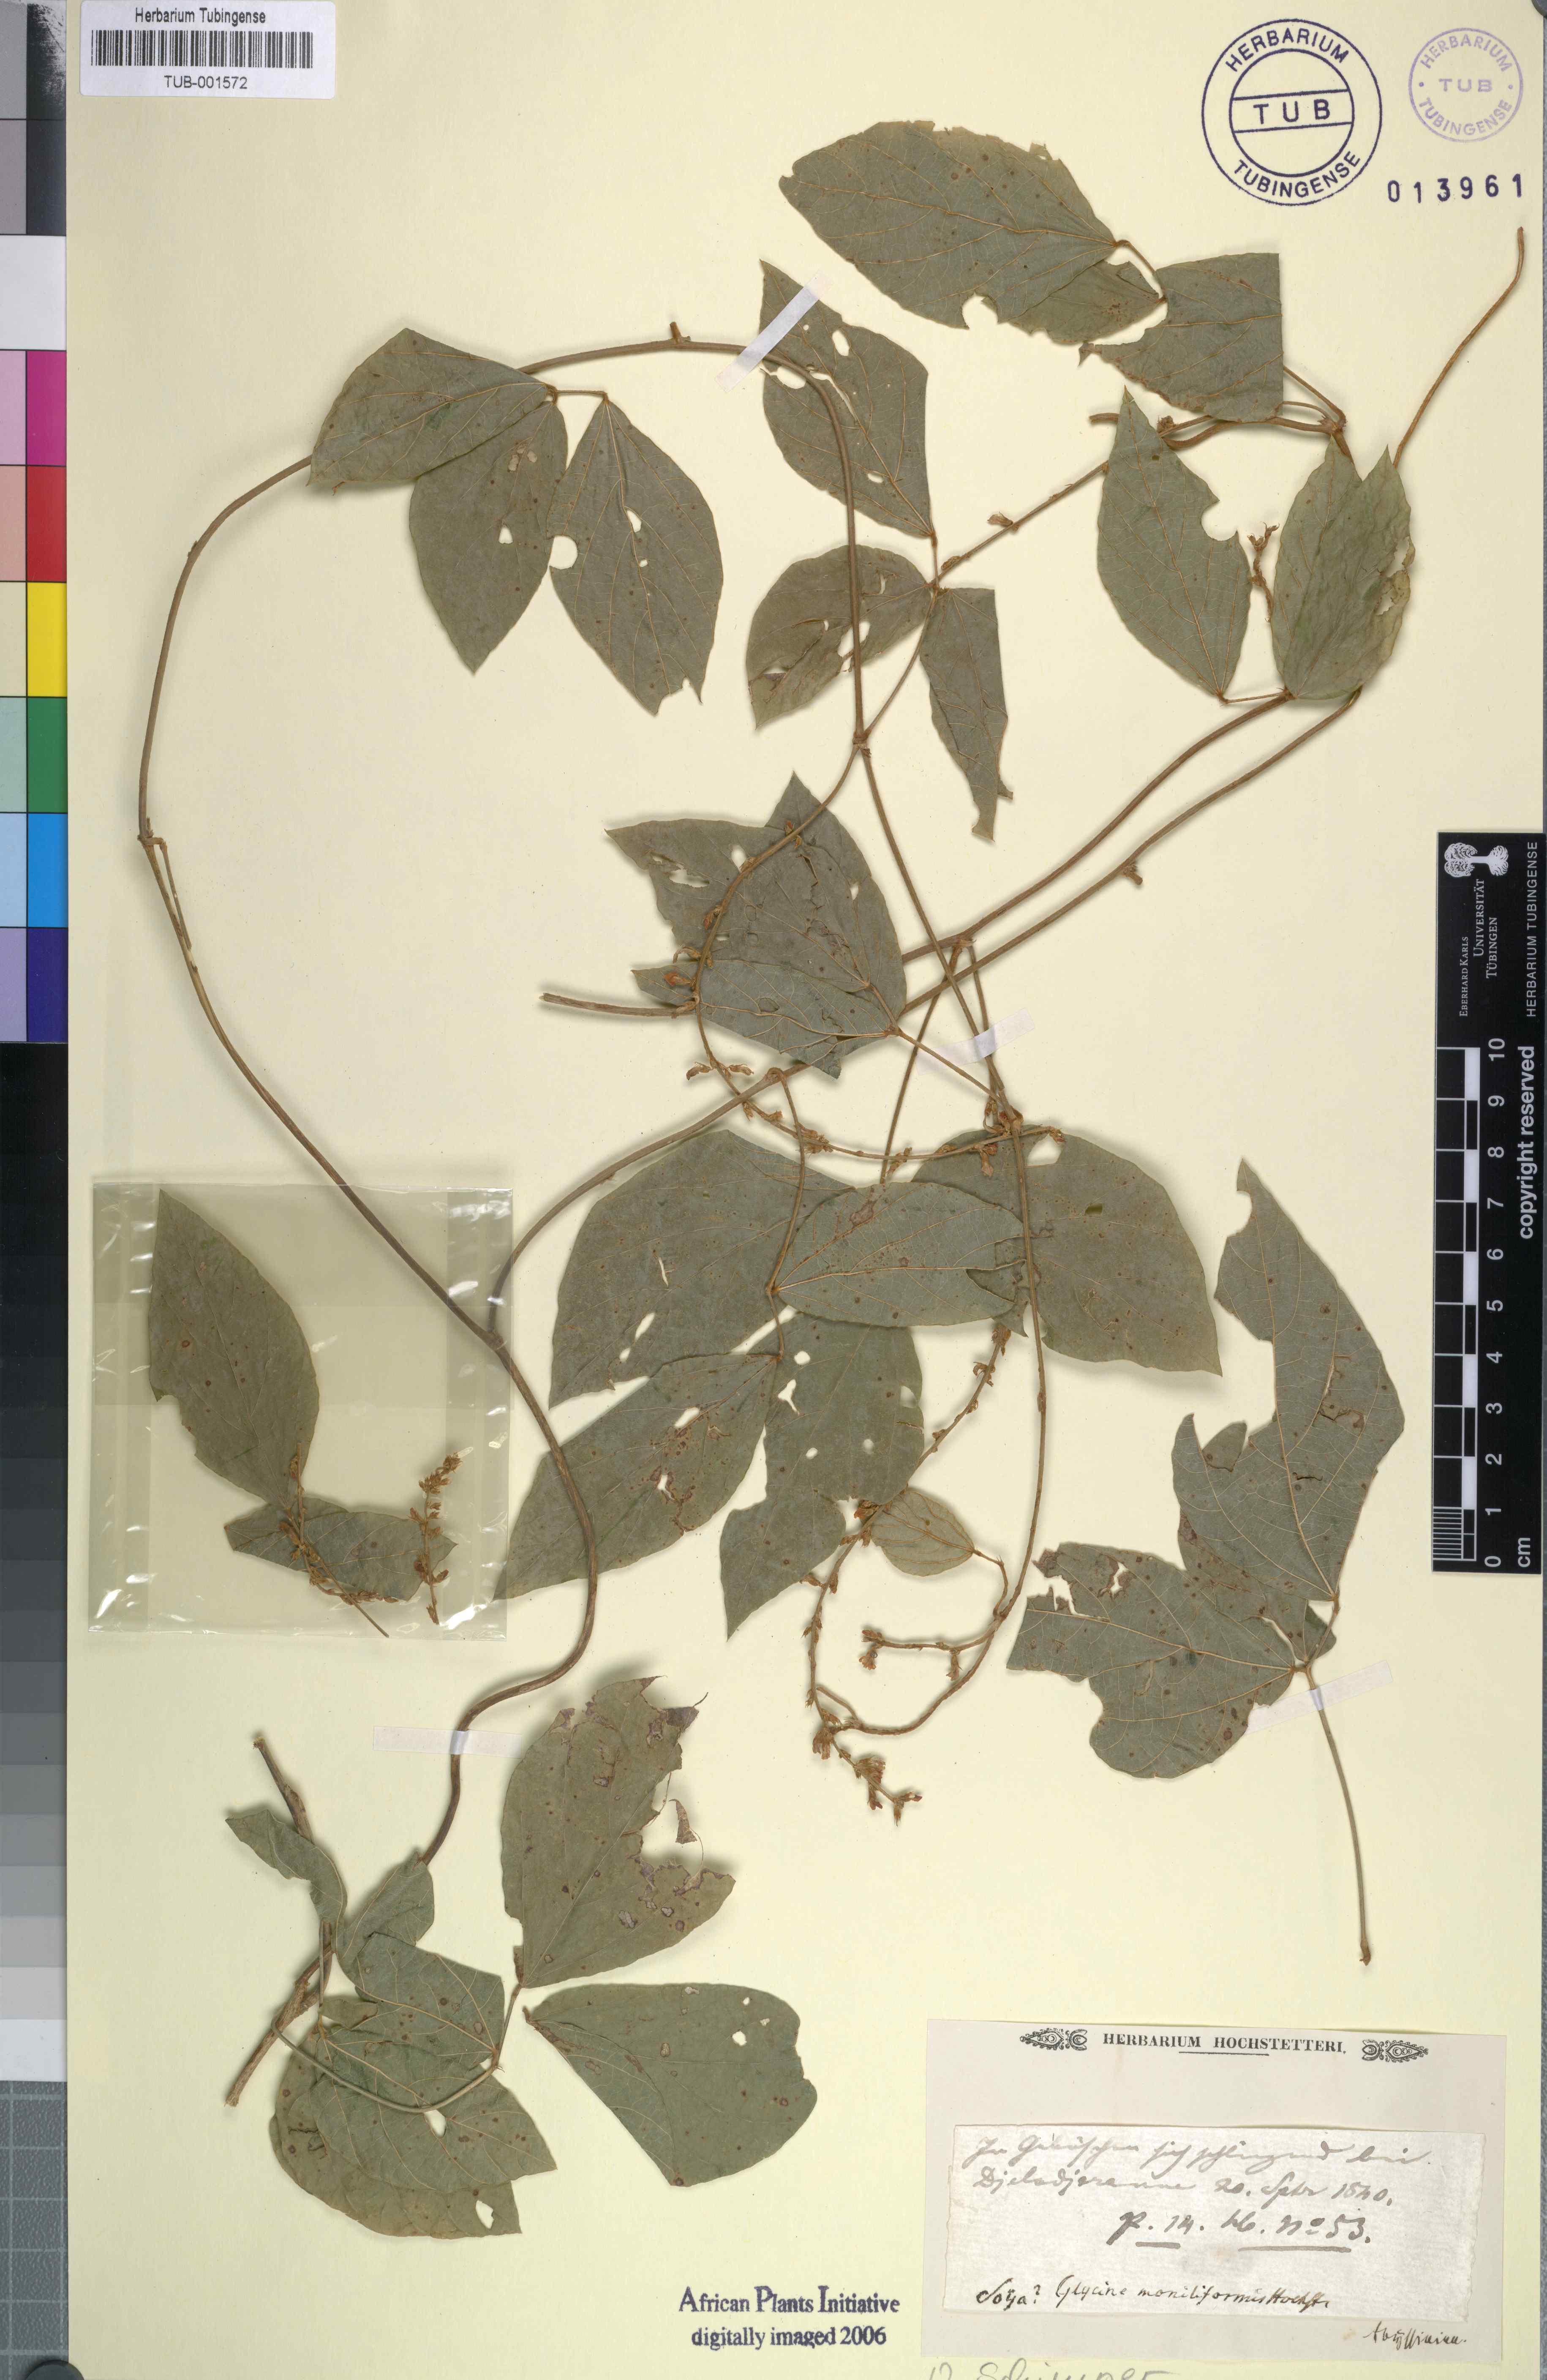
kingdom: Plantae
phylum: Tracheophyta
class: Magnoliopsida
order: Fabales
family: Fabaceae
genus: Pueraria
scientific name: Pueraria montana
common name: Kudzu
